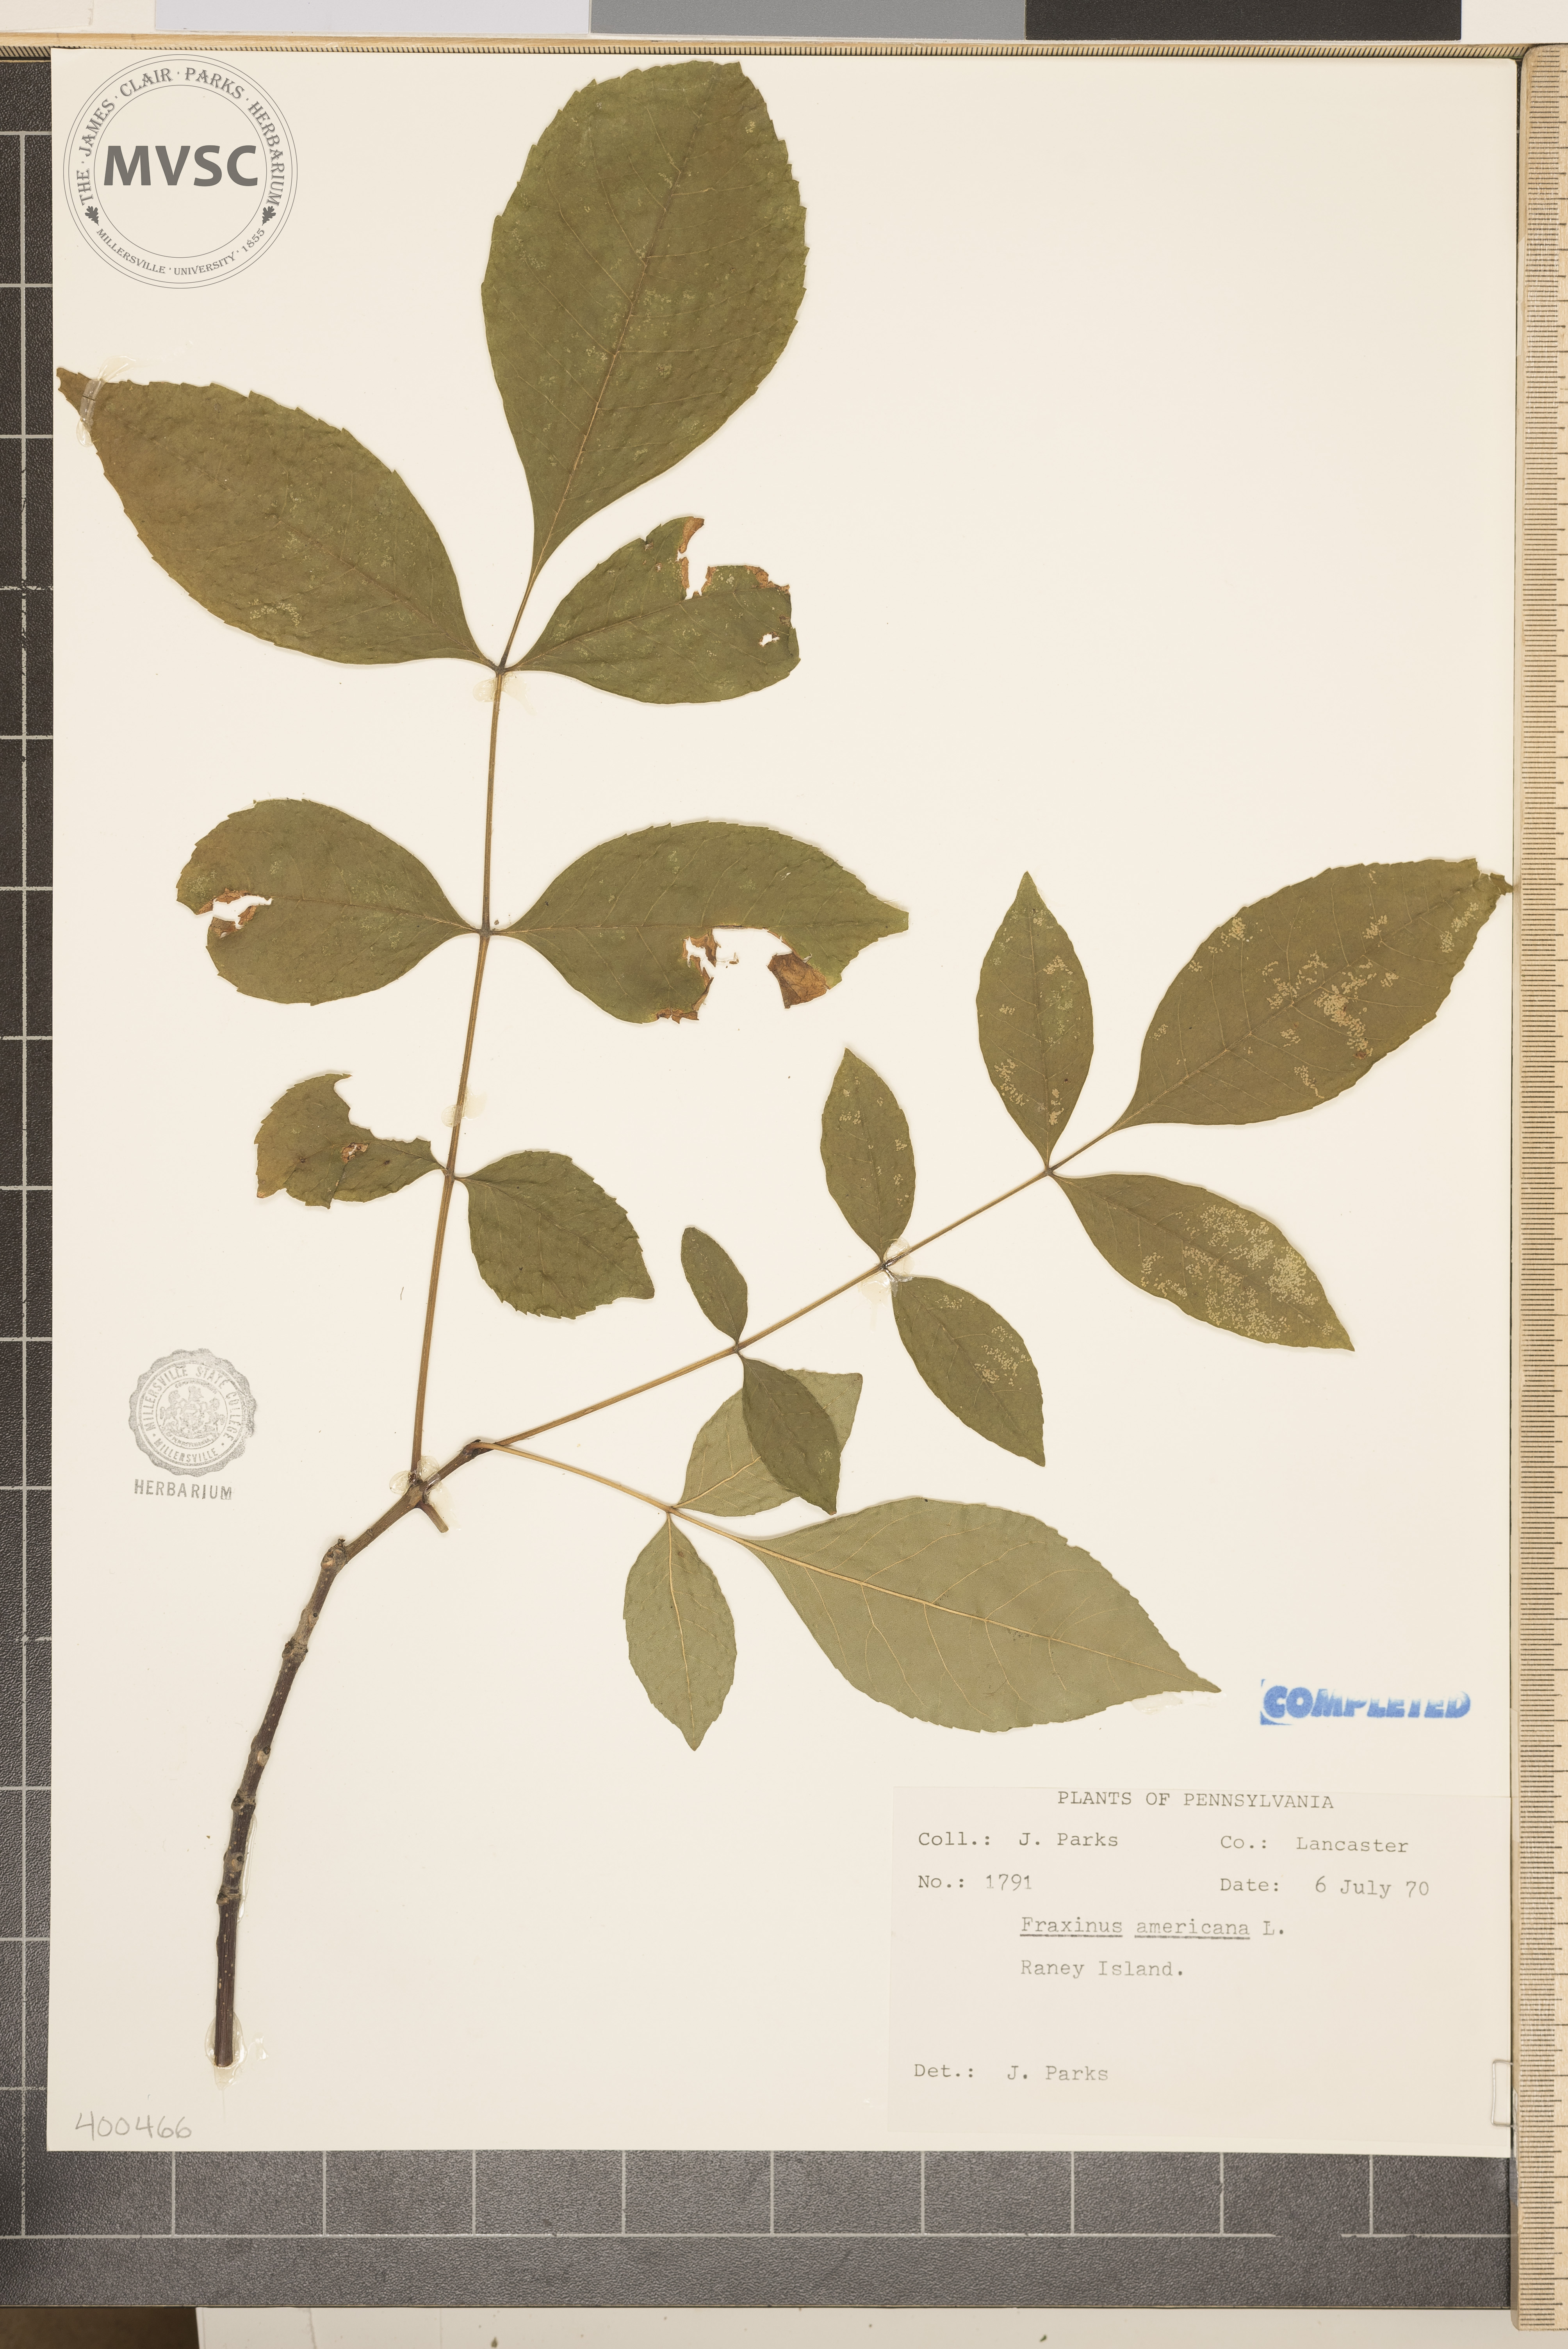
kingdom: Plantae
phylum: Tracheophyta
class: Magnoliopsida
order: Lamiales
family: Oleaceae
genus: Fraxinus
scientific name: Fraxinus americana
